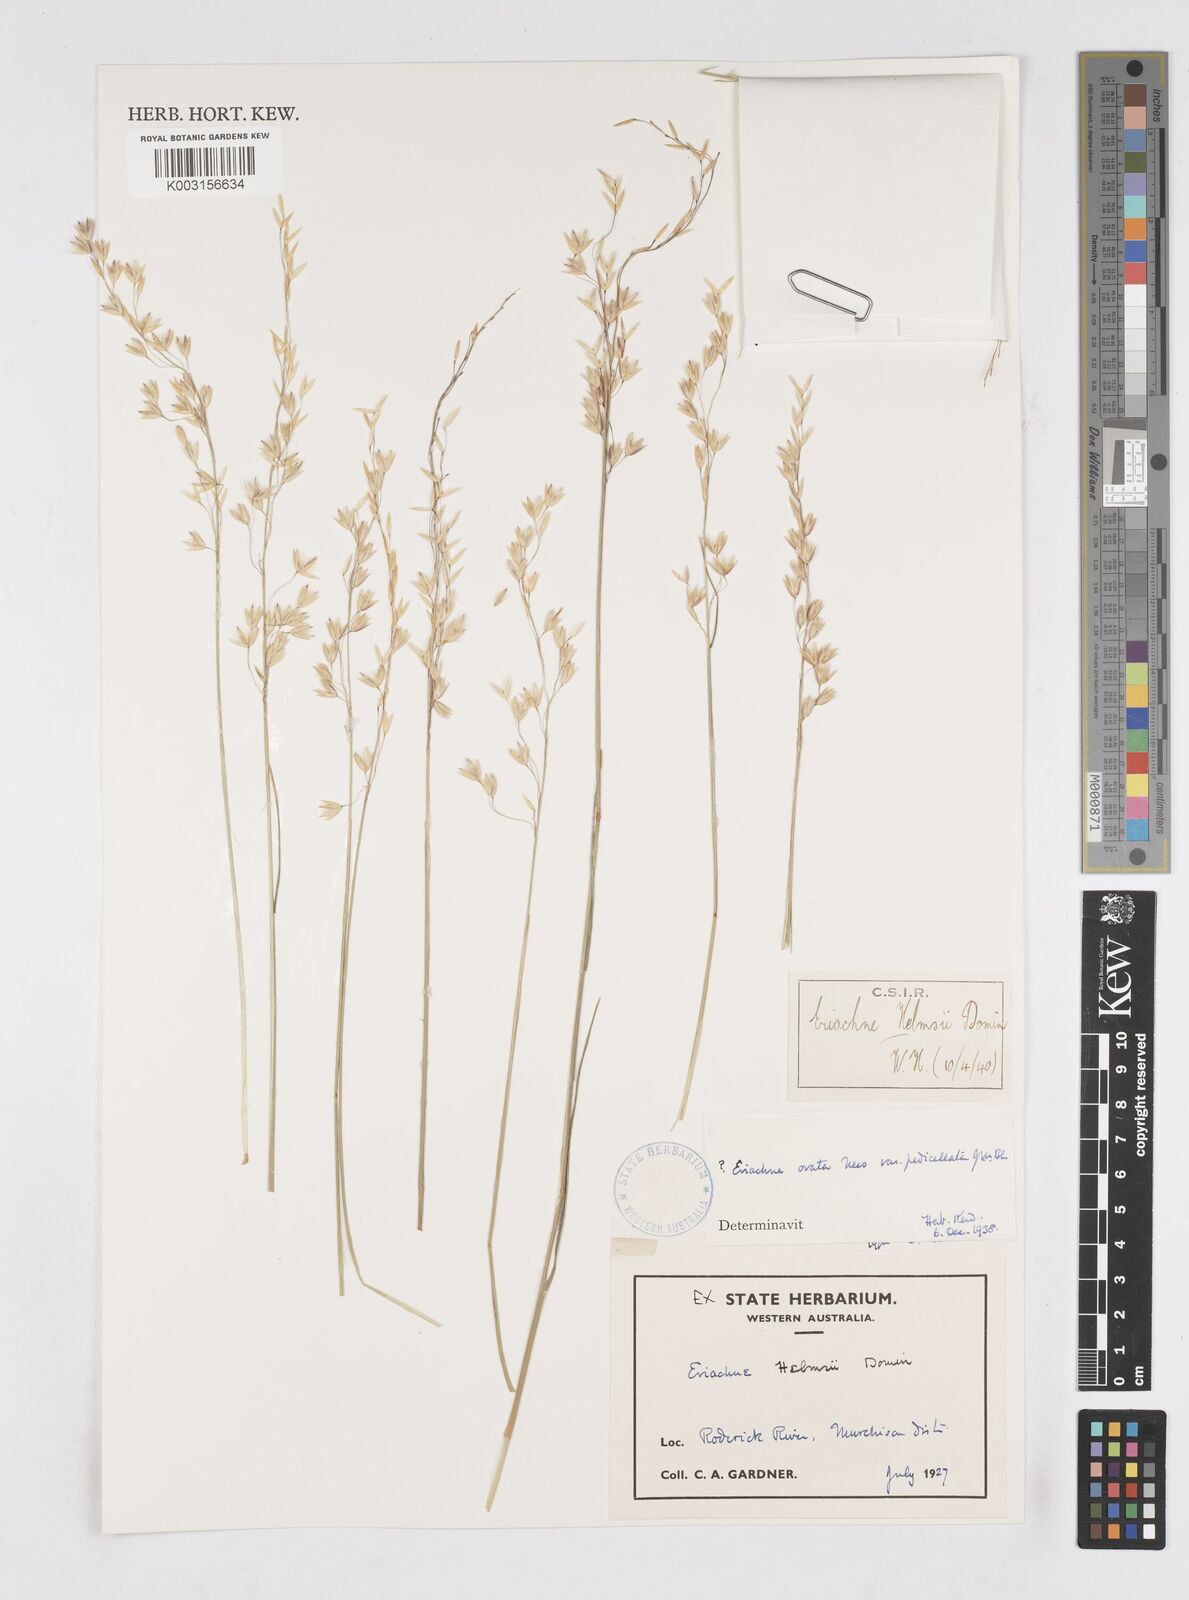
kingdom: Plantae
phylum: Tracheophyta
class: Liliopsida
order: Poales
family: Poaceae
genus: Eriachne
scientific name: Eriachne helmsii
